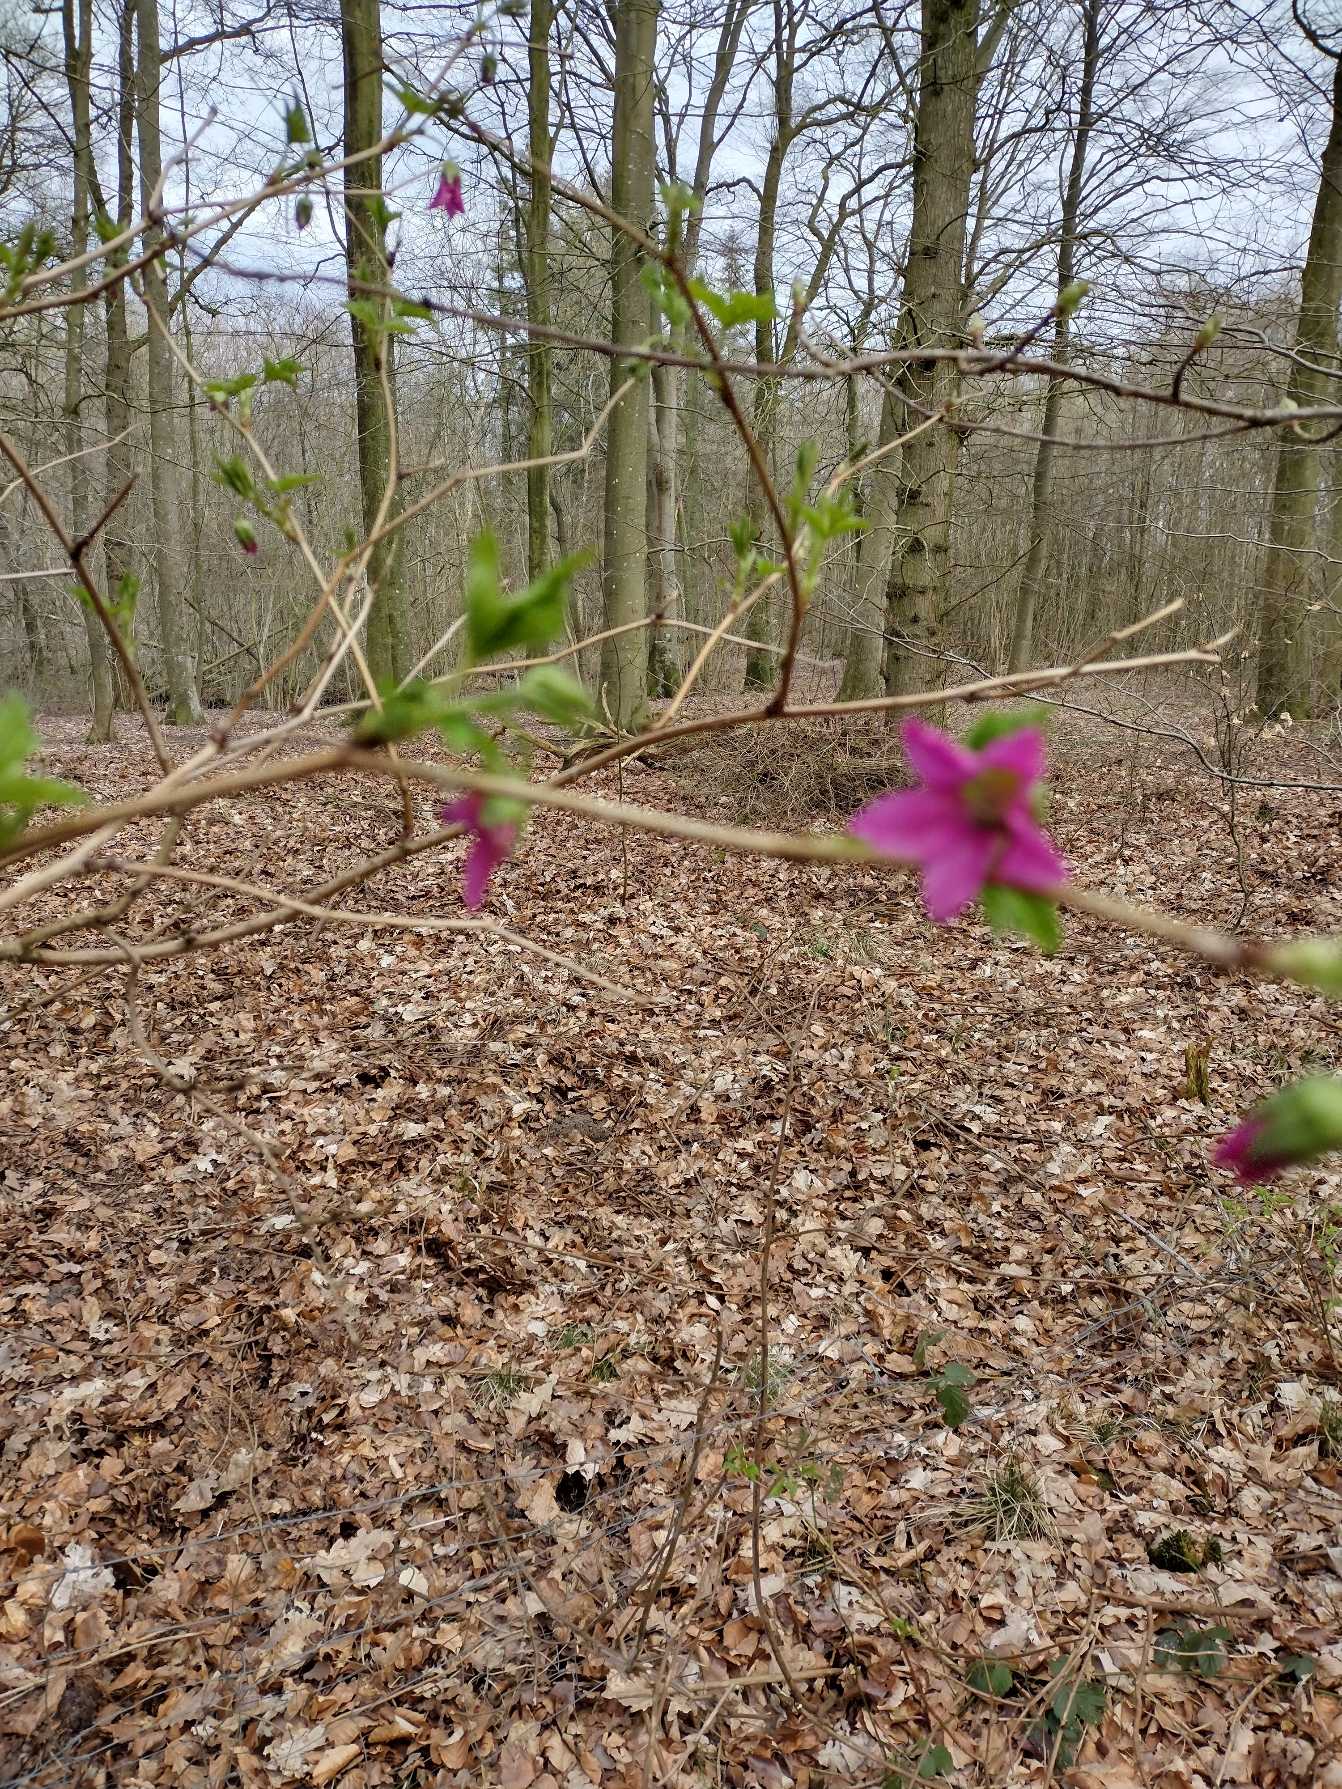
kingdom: Plantae
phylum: Tracheophyta
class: Magnoliopsida
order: Rosales
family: Rosaceae
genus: Rubus
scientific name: Rubus spectabilis
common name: Laksebær
